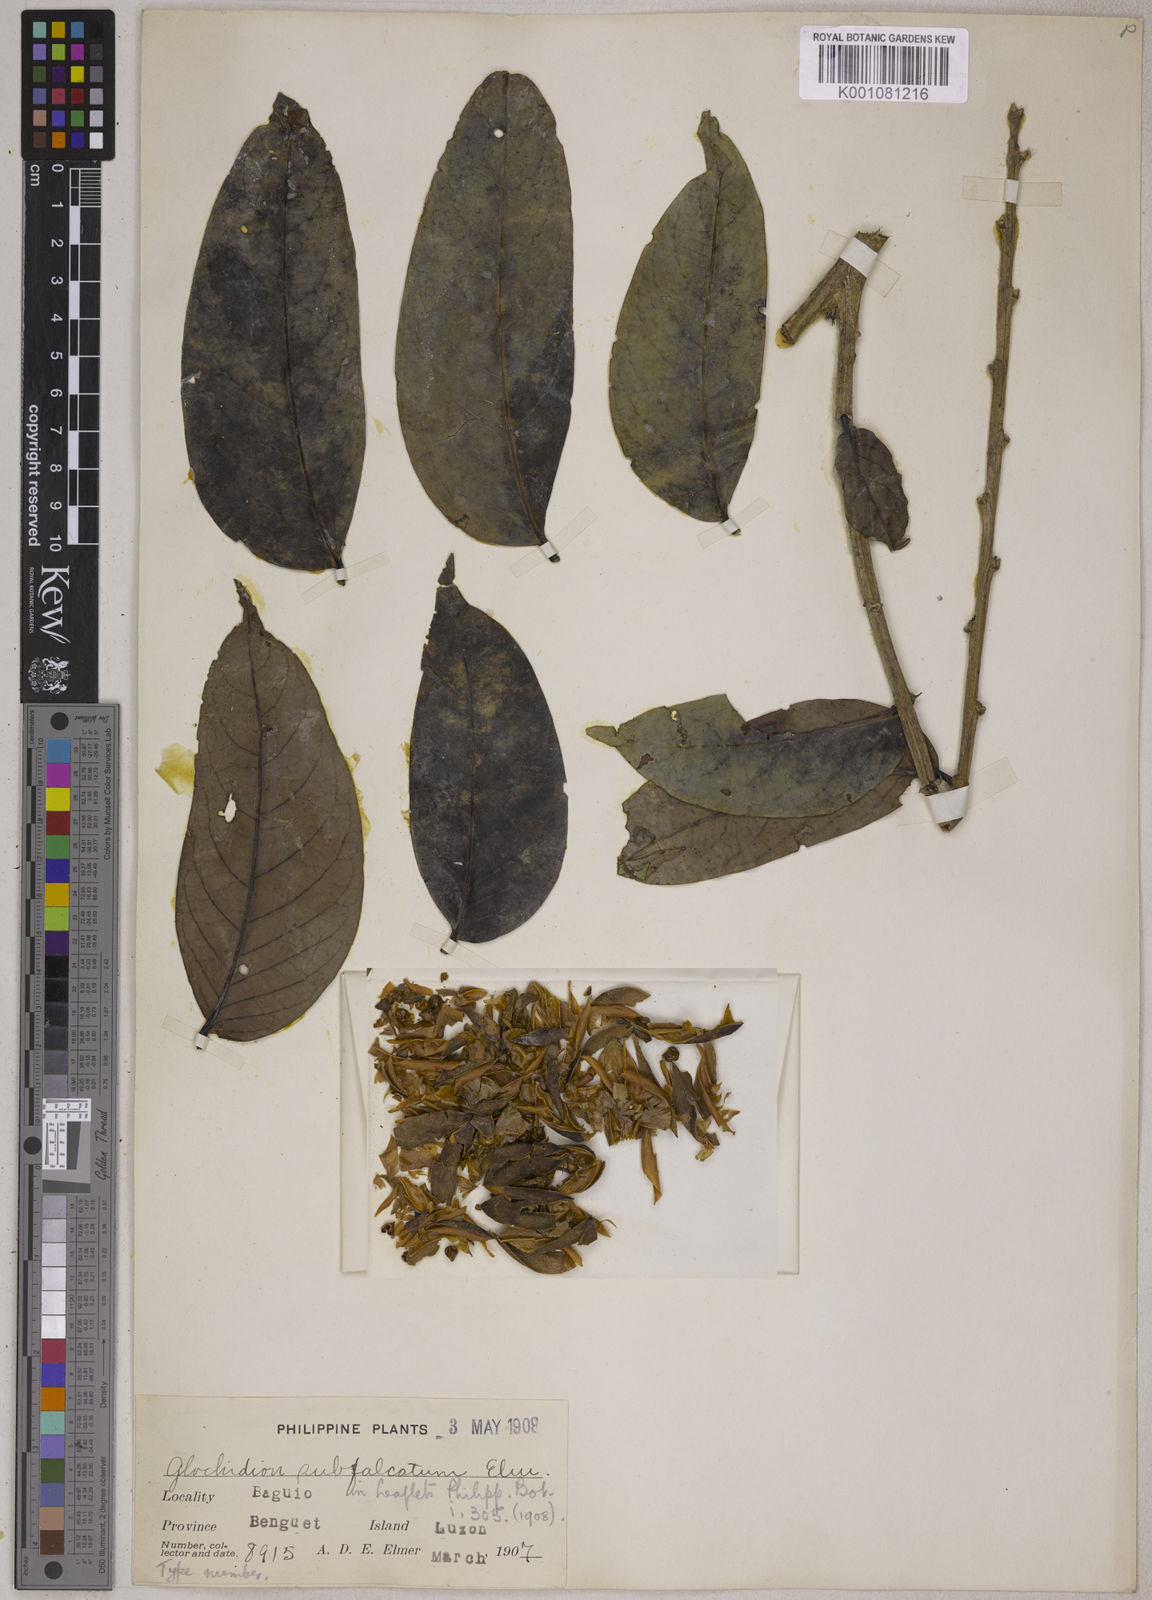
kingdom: Plantae
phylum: Tracheophyta
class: Magnoliopsida
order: Malpighiales
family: Phyllanthaceae
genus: Glochidion
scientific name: Glochidion subfalcatum
